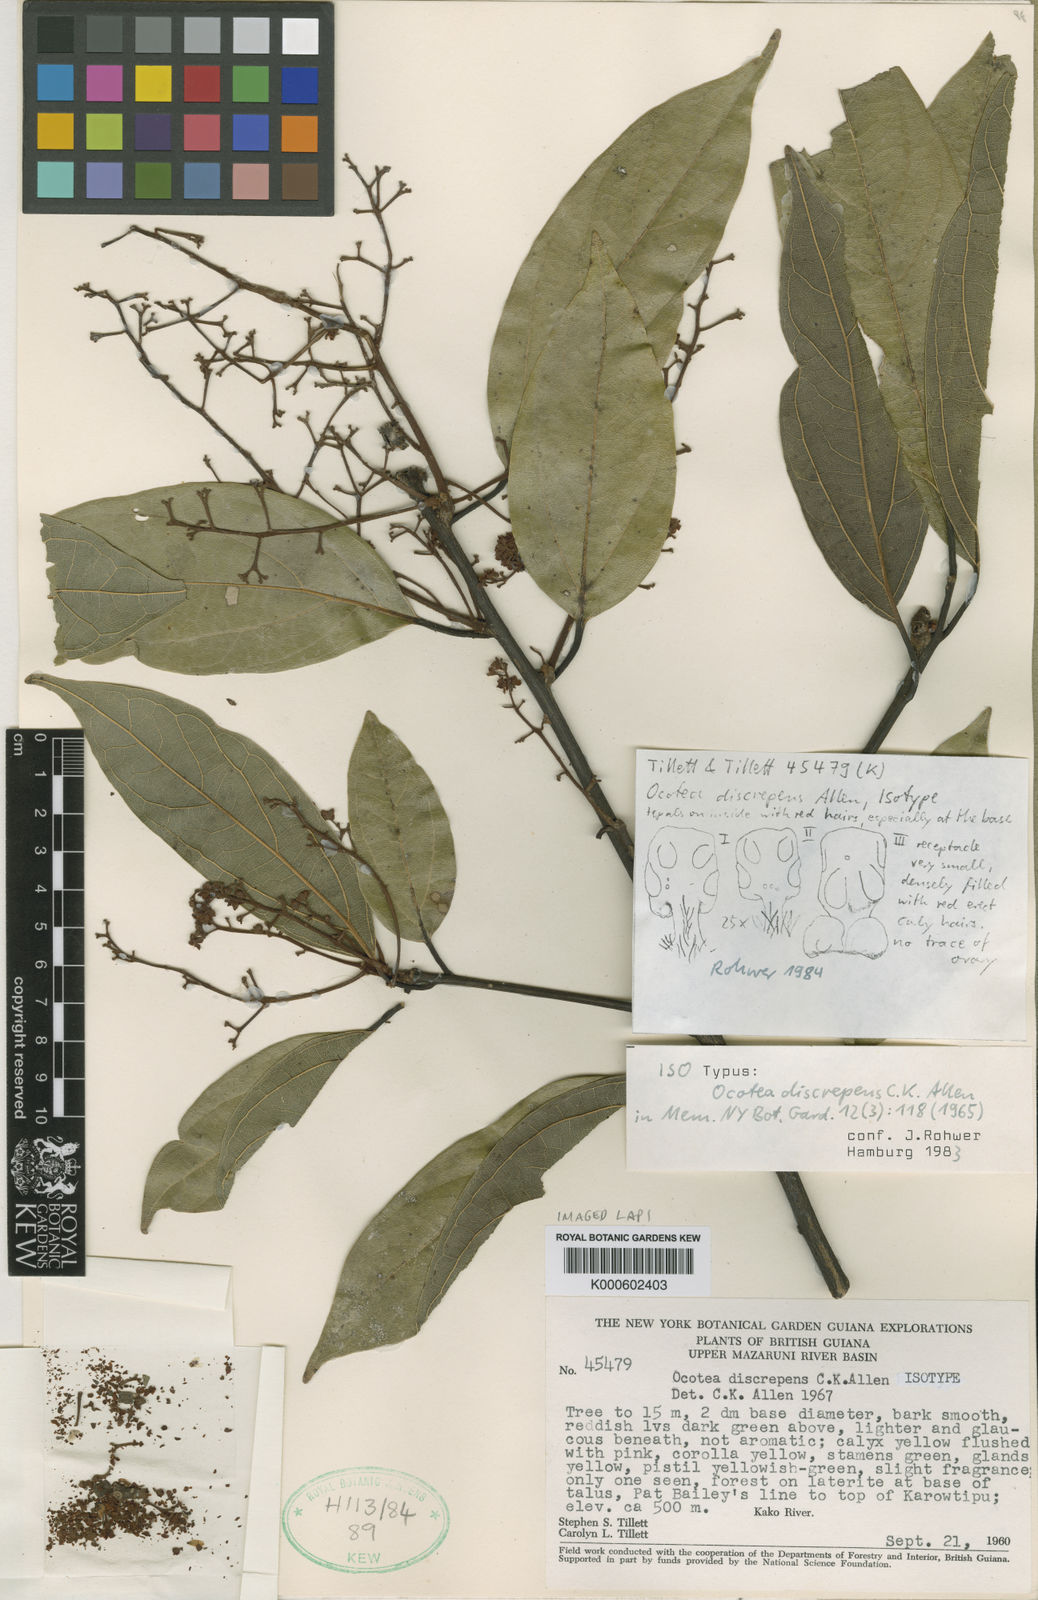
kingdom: Plantae
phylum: Tracheophyta
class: Magnoliopsida
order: Laurales
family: Lauraceae
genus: Ocotea
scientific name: Ocotea discrepens
